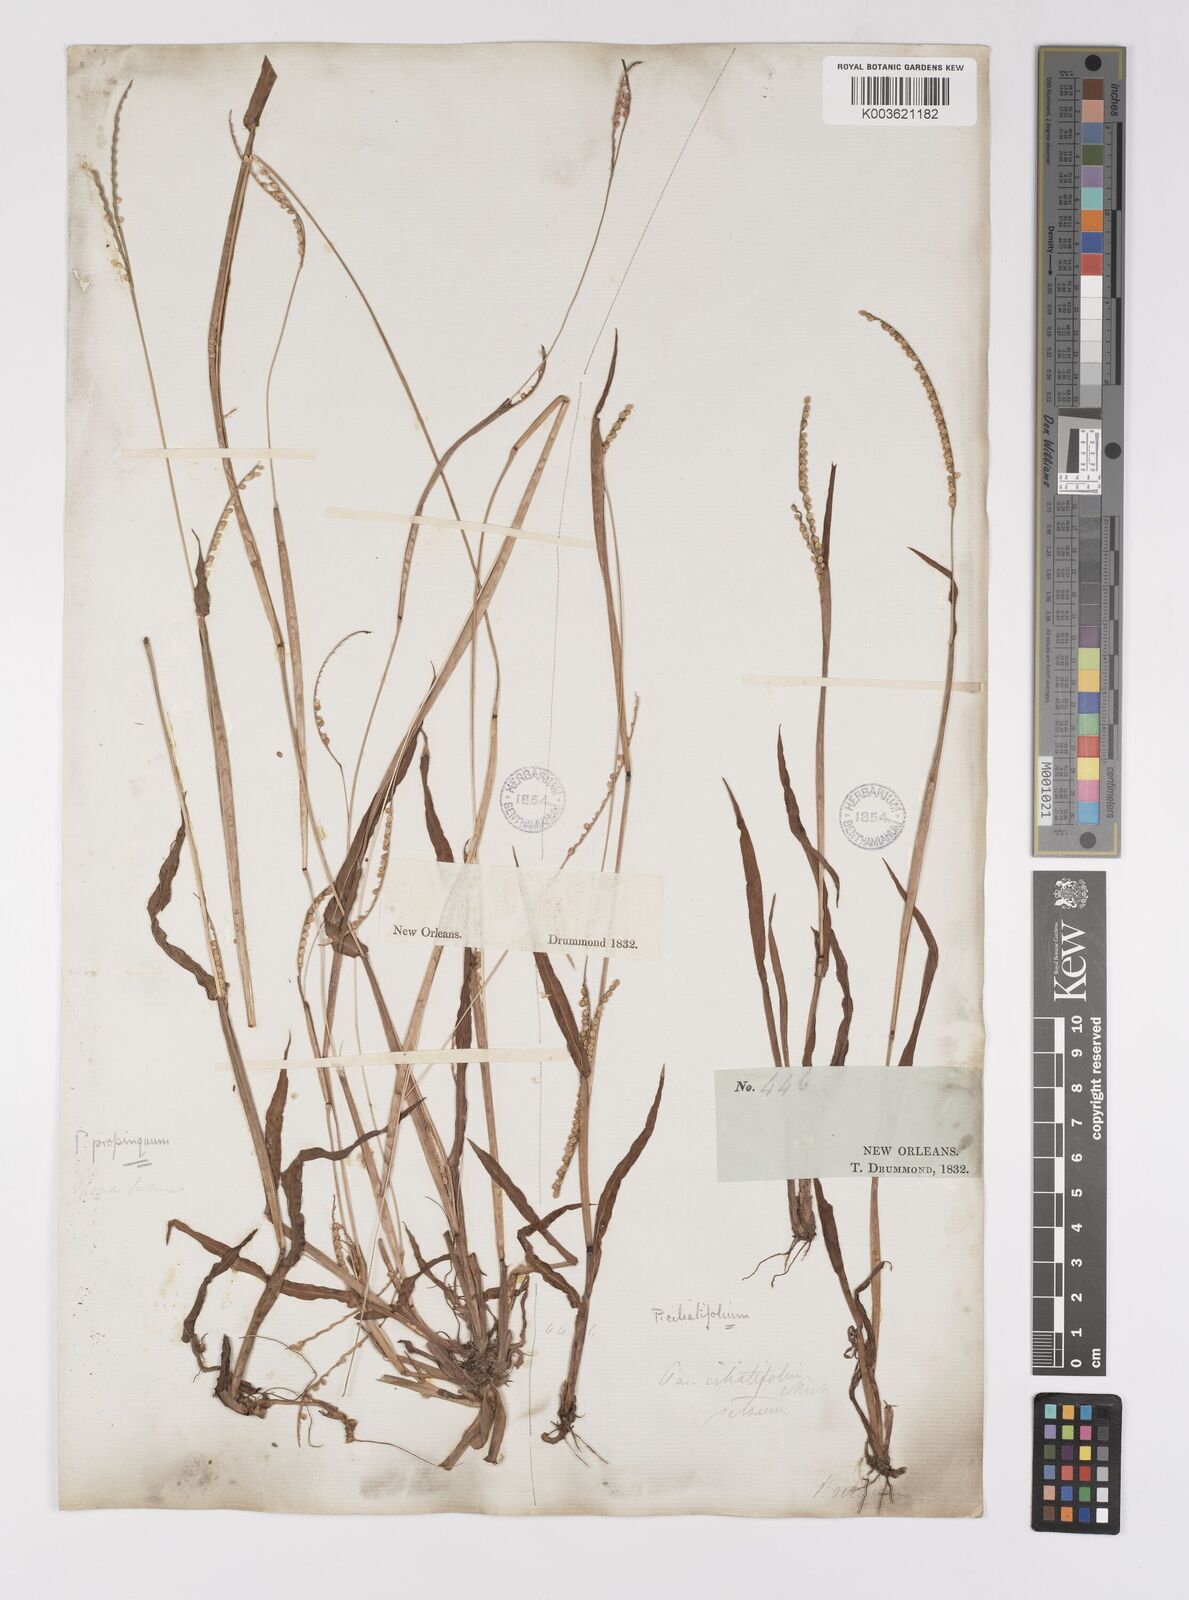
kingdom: Plantae
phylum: Tracheophyta
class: Liliopsida
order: Poales
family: Poaceae
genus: Paspalum
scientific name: Paspalum setaceum
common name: Slender paspalum
